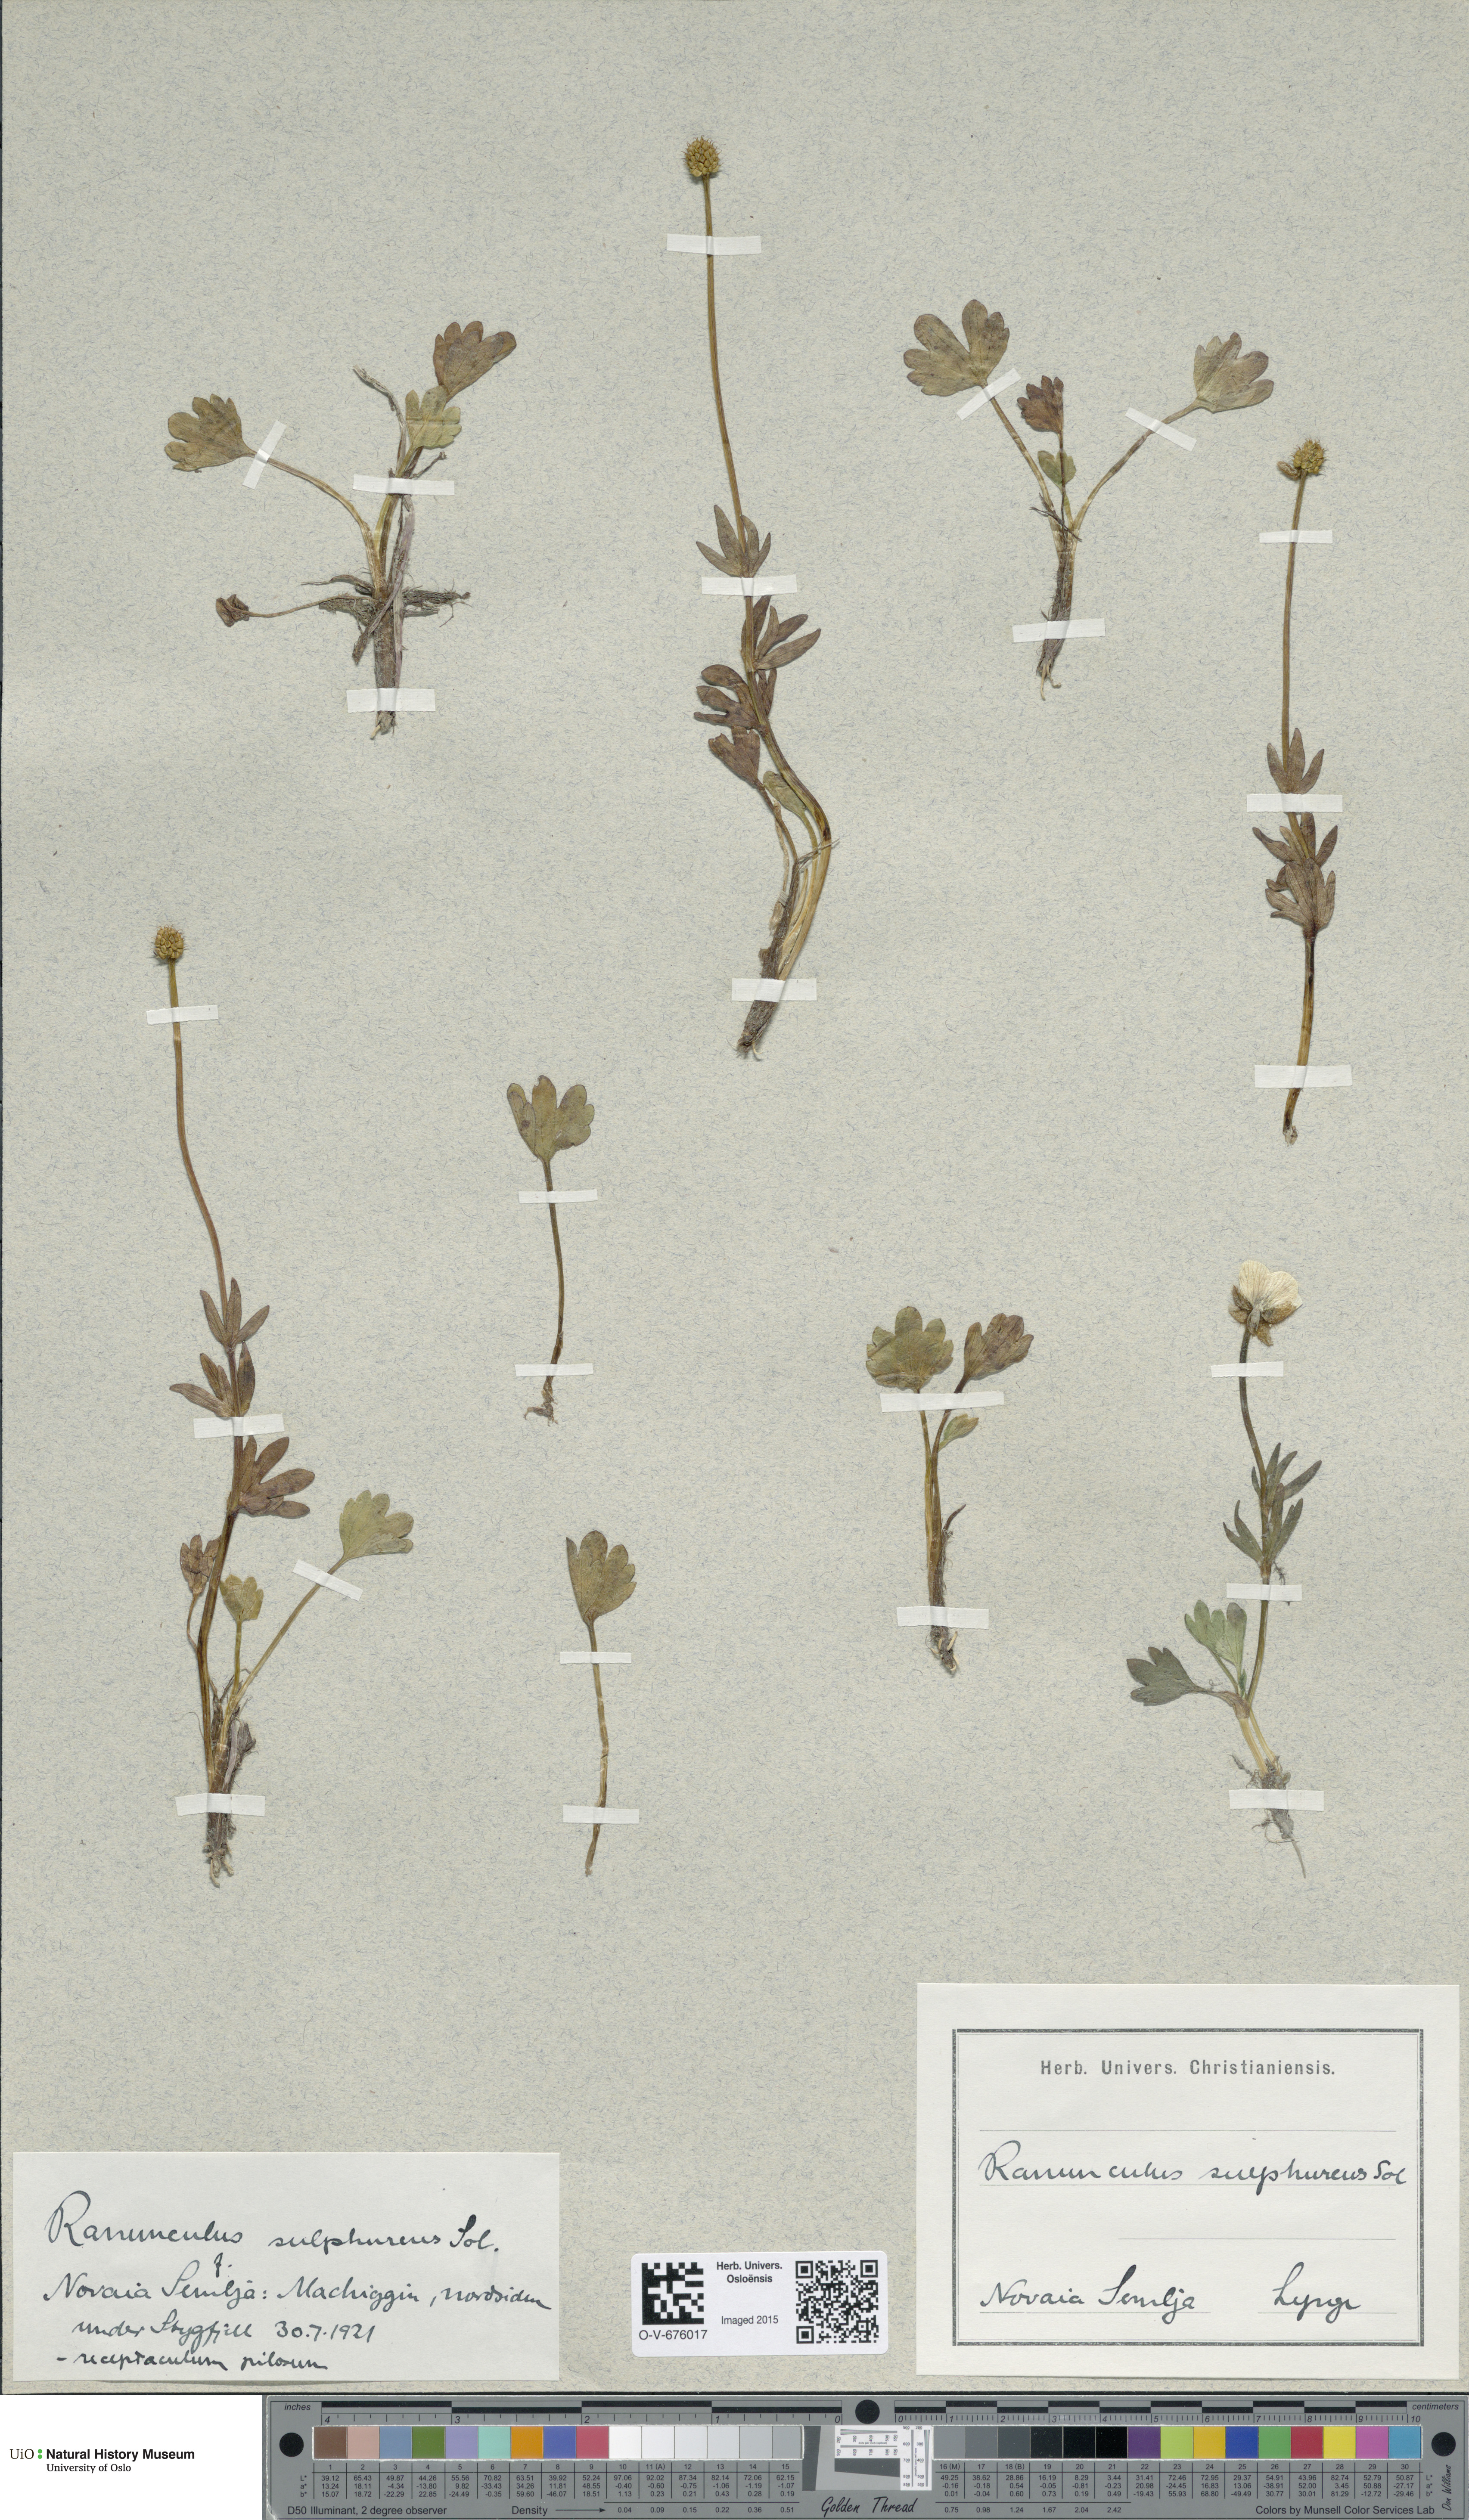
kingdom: Plantae
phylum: Tracheophyta
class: Magnoliopsida
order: Ranunculales
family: Ranunculaceae
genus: Ranunculus
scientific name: Ranunculus sulphureus
